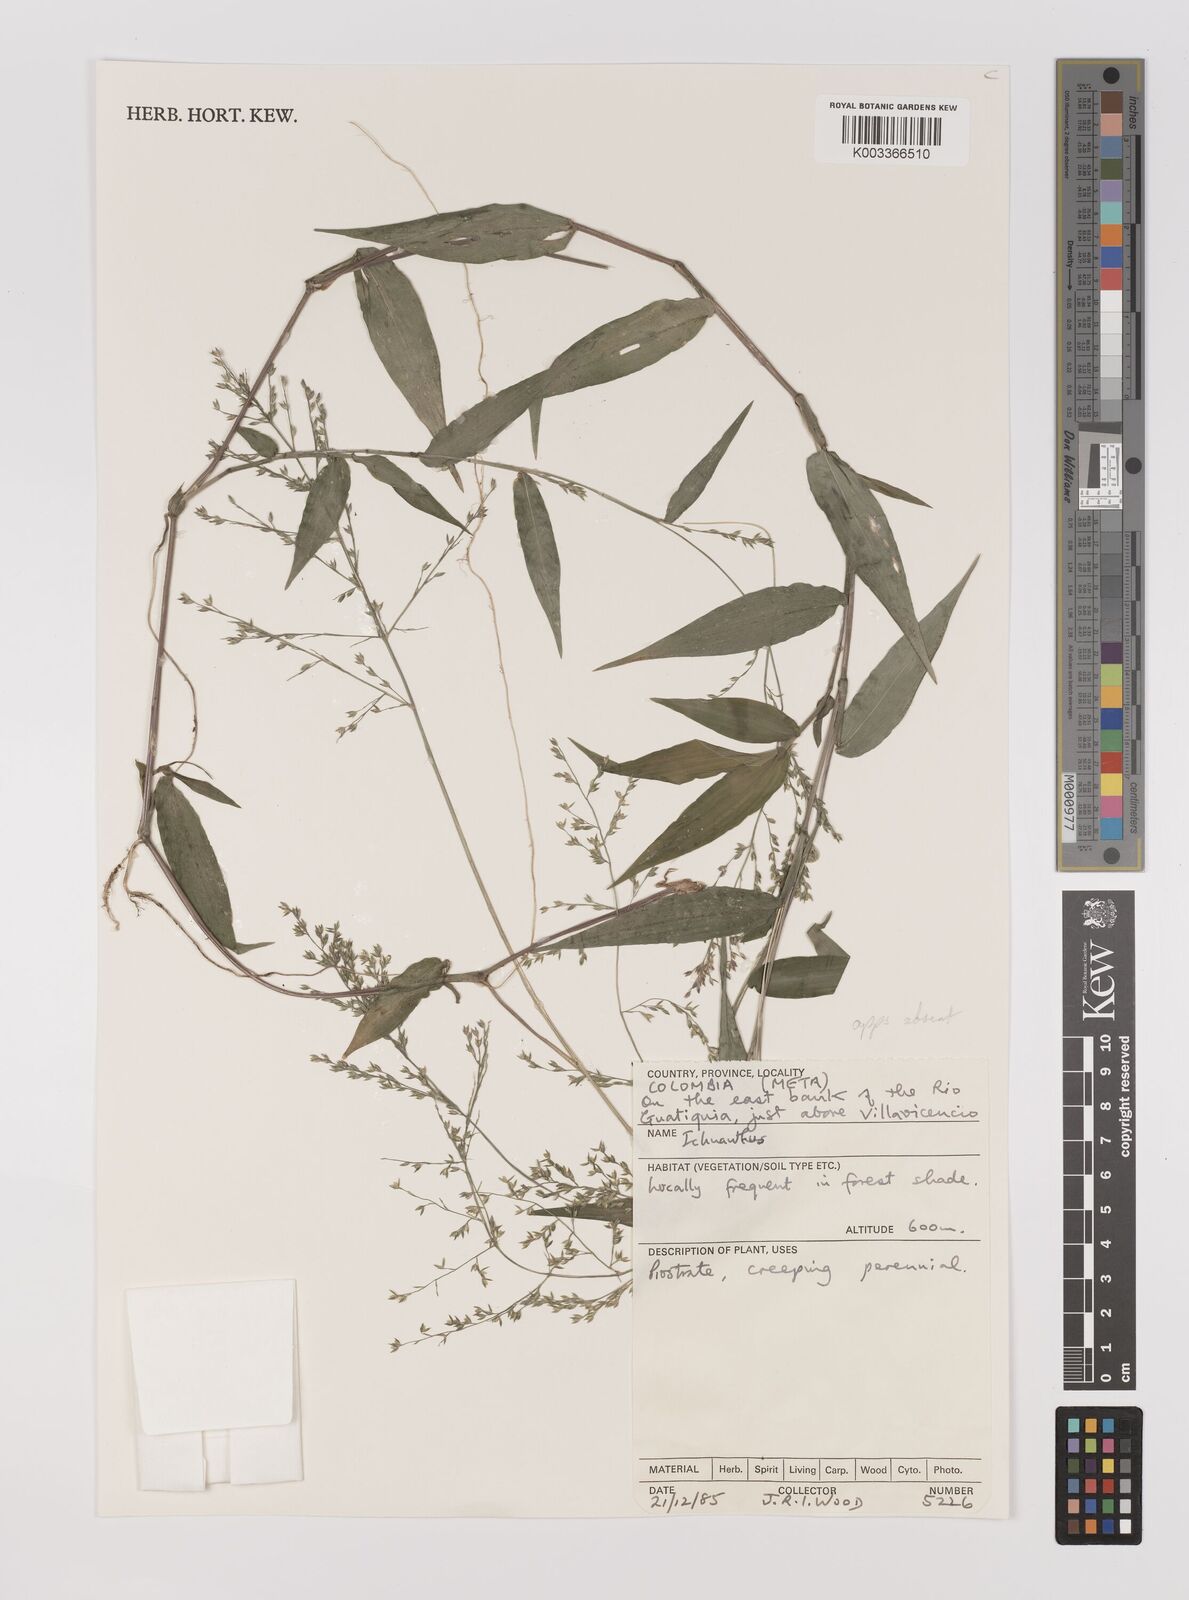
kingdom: Plantae
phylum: Tracheophyta
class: Liliopsida
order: Poales
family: Poaceae
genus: Ichnanthus
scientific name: Ichnanthus
